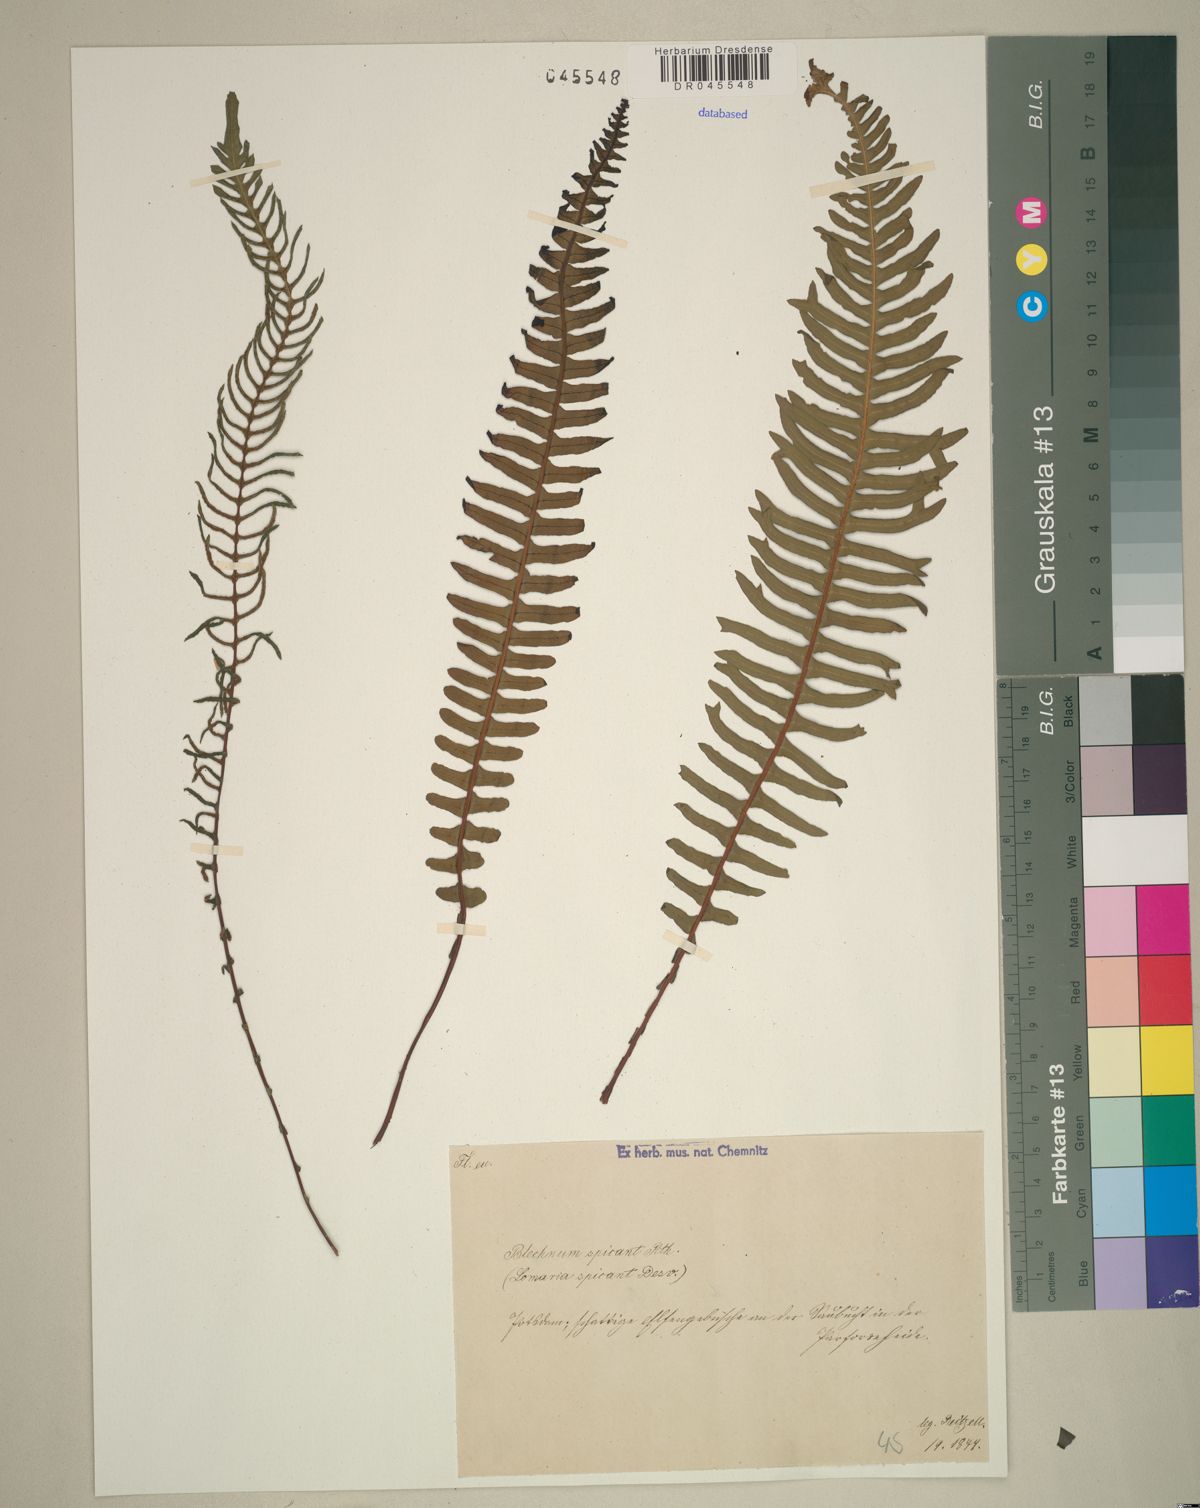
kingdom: Plantae
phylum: Tracheophyta
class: Polypodiopsida
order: Polypodiales
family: Blechnaceae
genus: Struthiopteris
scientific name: Struthiopteris spicant
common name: Deer fern
